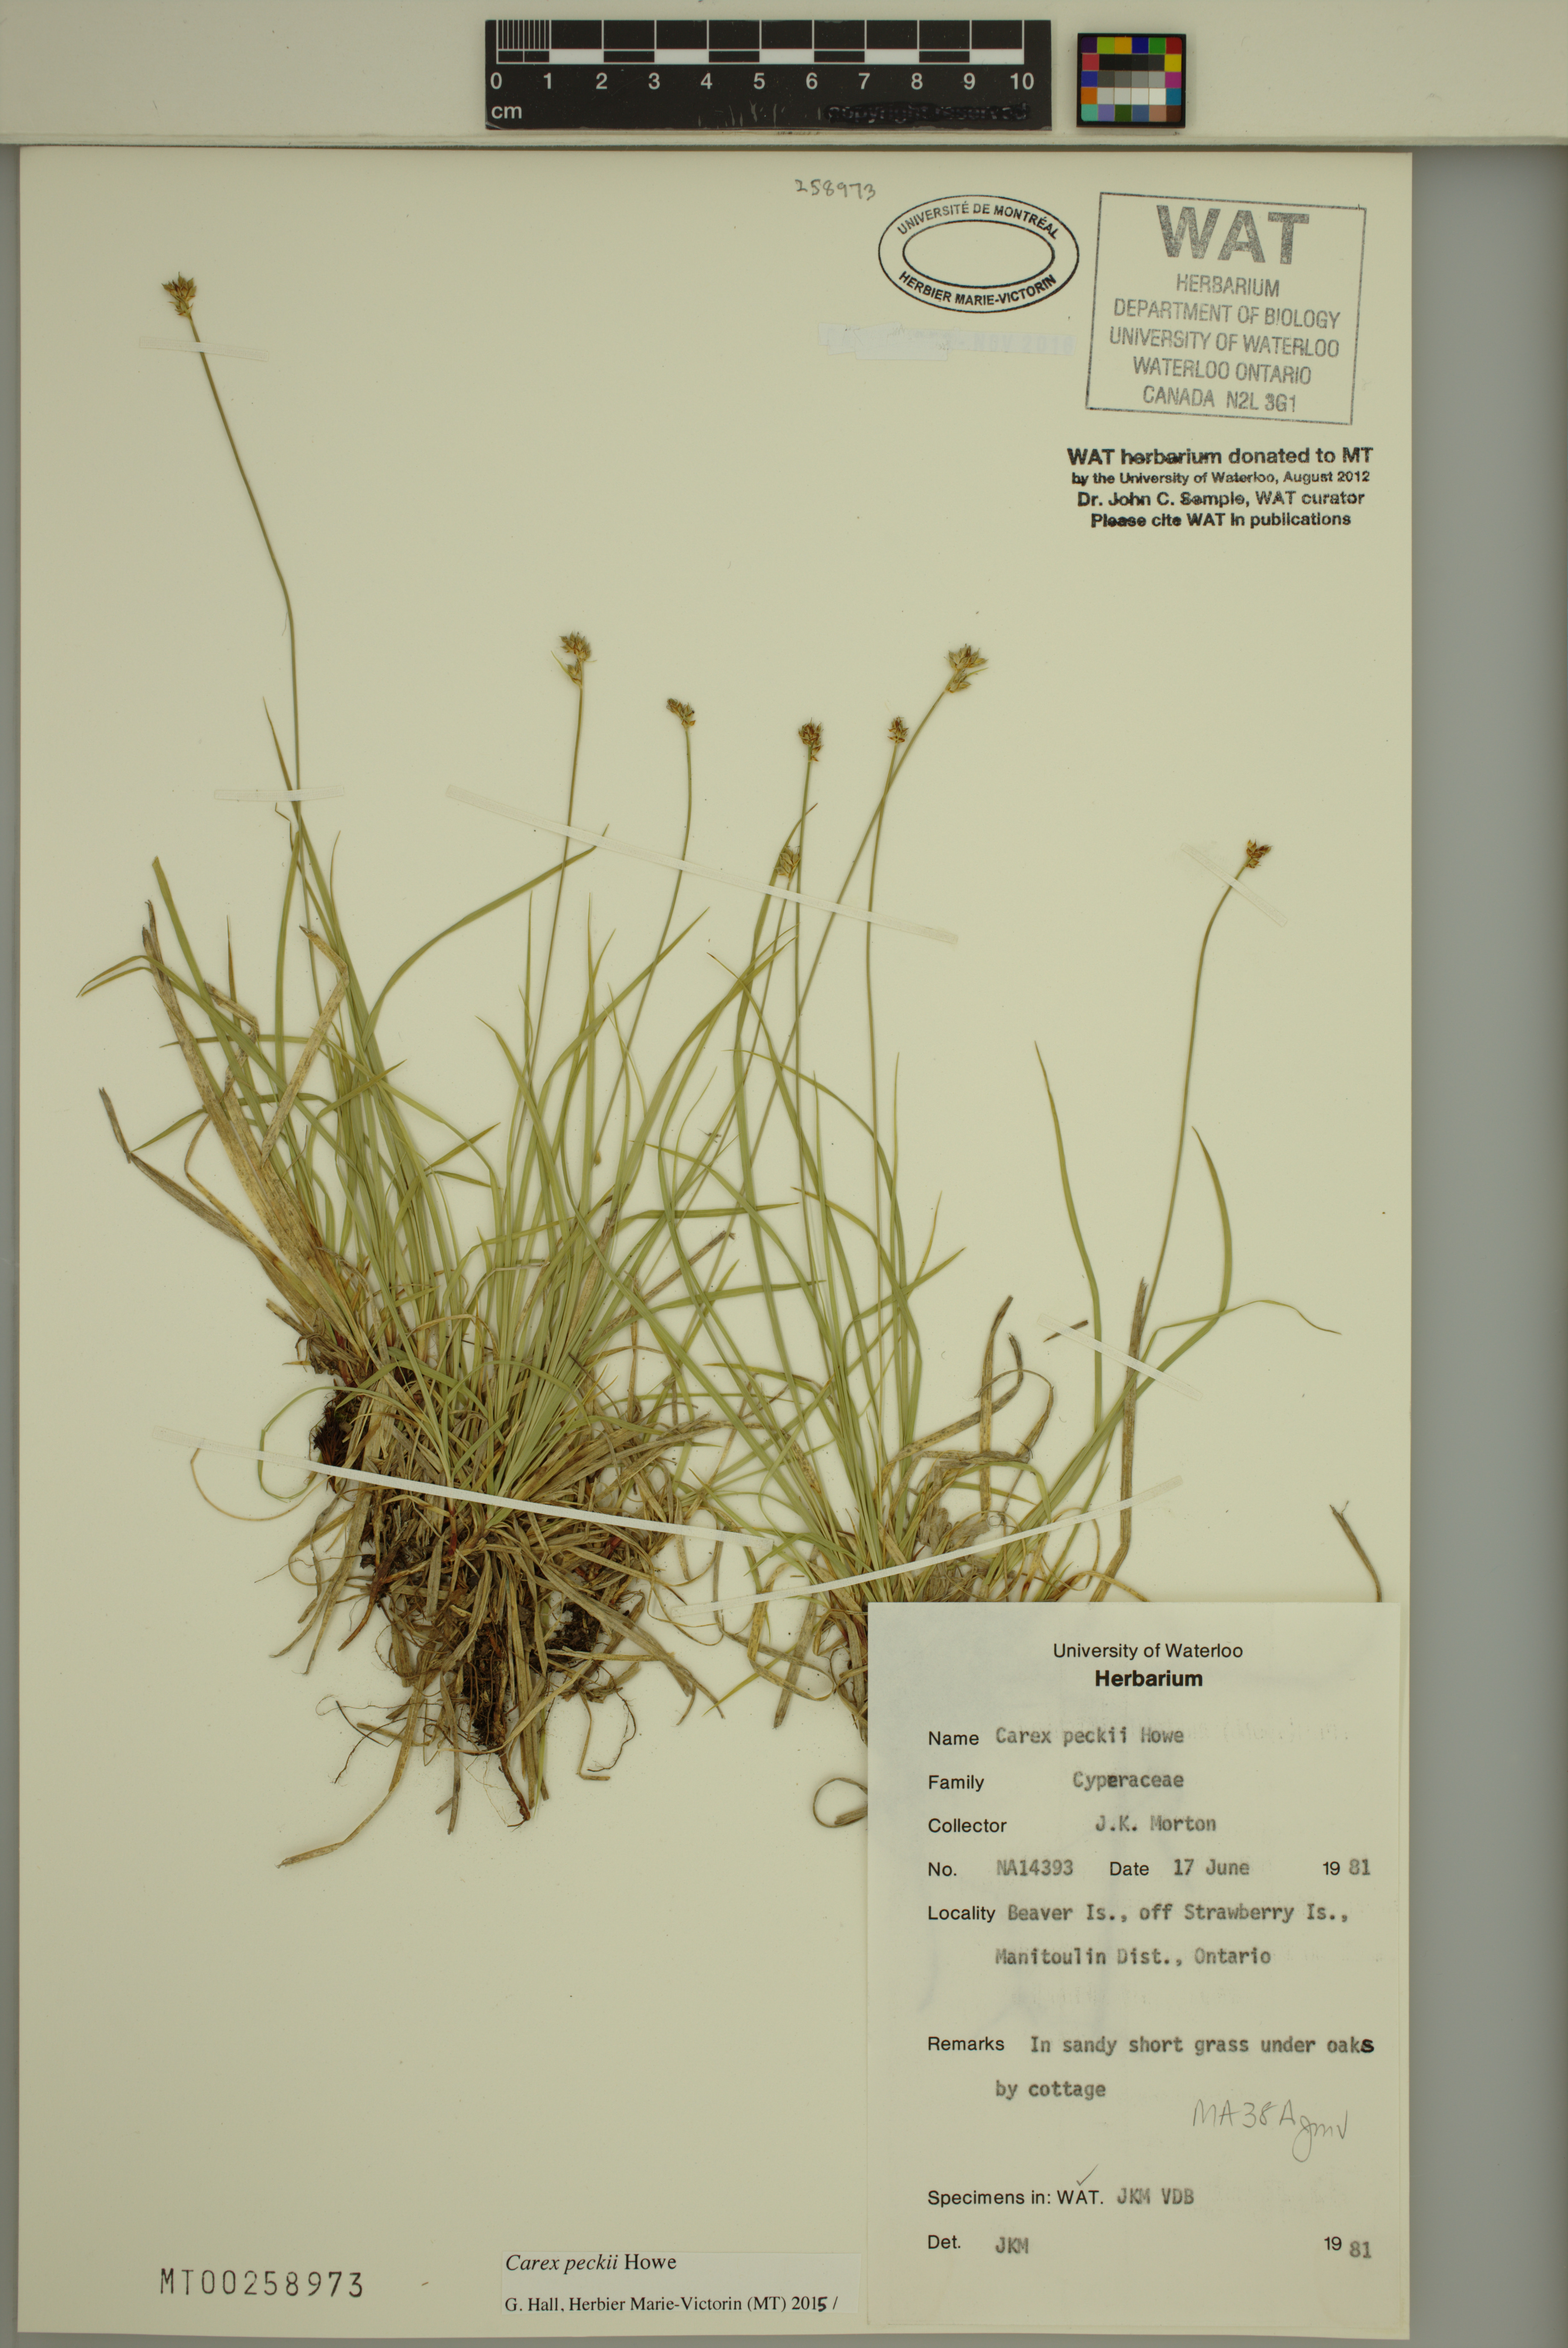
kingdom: Plantae
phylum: Tracheophyta
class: Liliopsida
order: Poales
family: Cyperaceae
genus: Carex
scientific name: Carex peckii
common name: Peck's oak sedge
